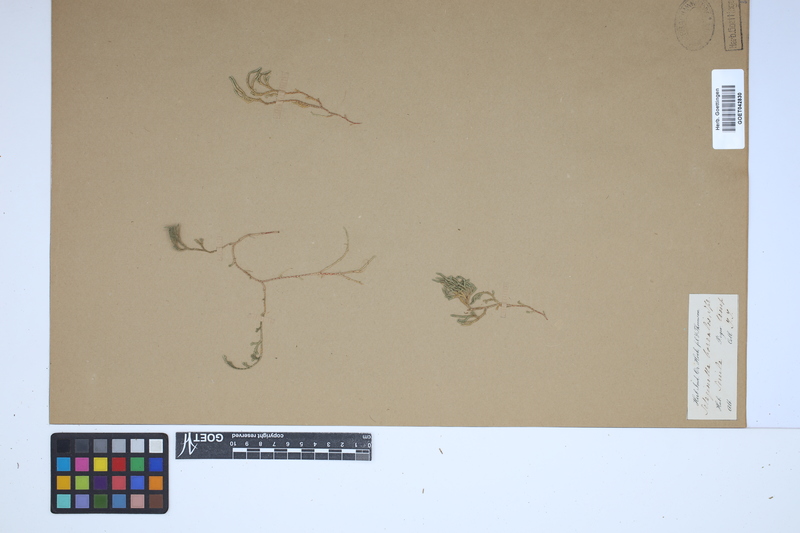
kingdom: Plantae
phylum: Tracheophyta
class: Lycopodiopsida
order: Selaginellales
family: Selaginellaceae
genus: Selaginella
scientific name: Selaginella sanguinolenta
